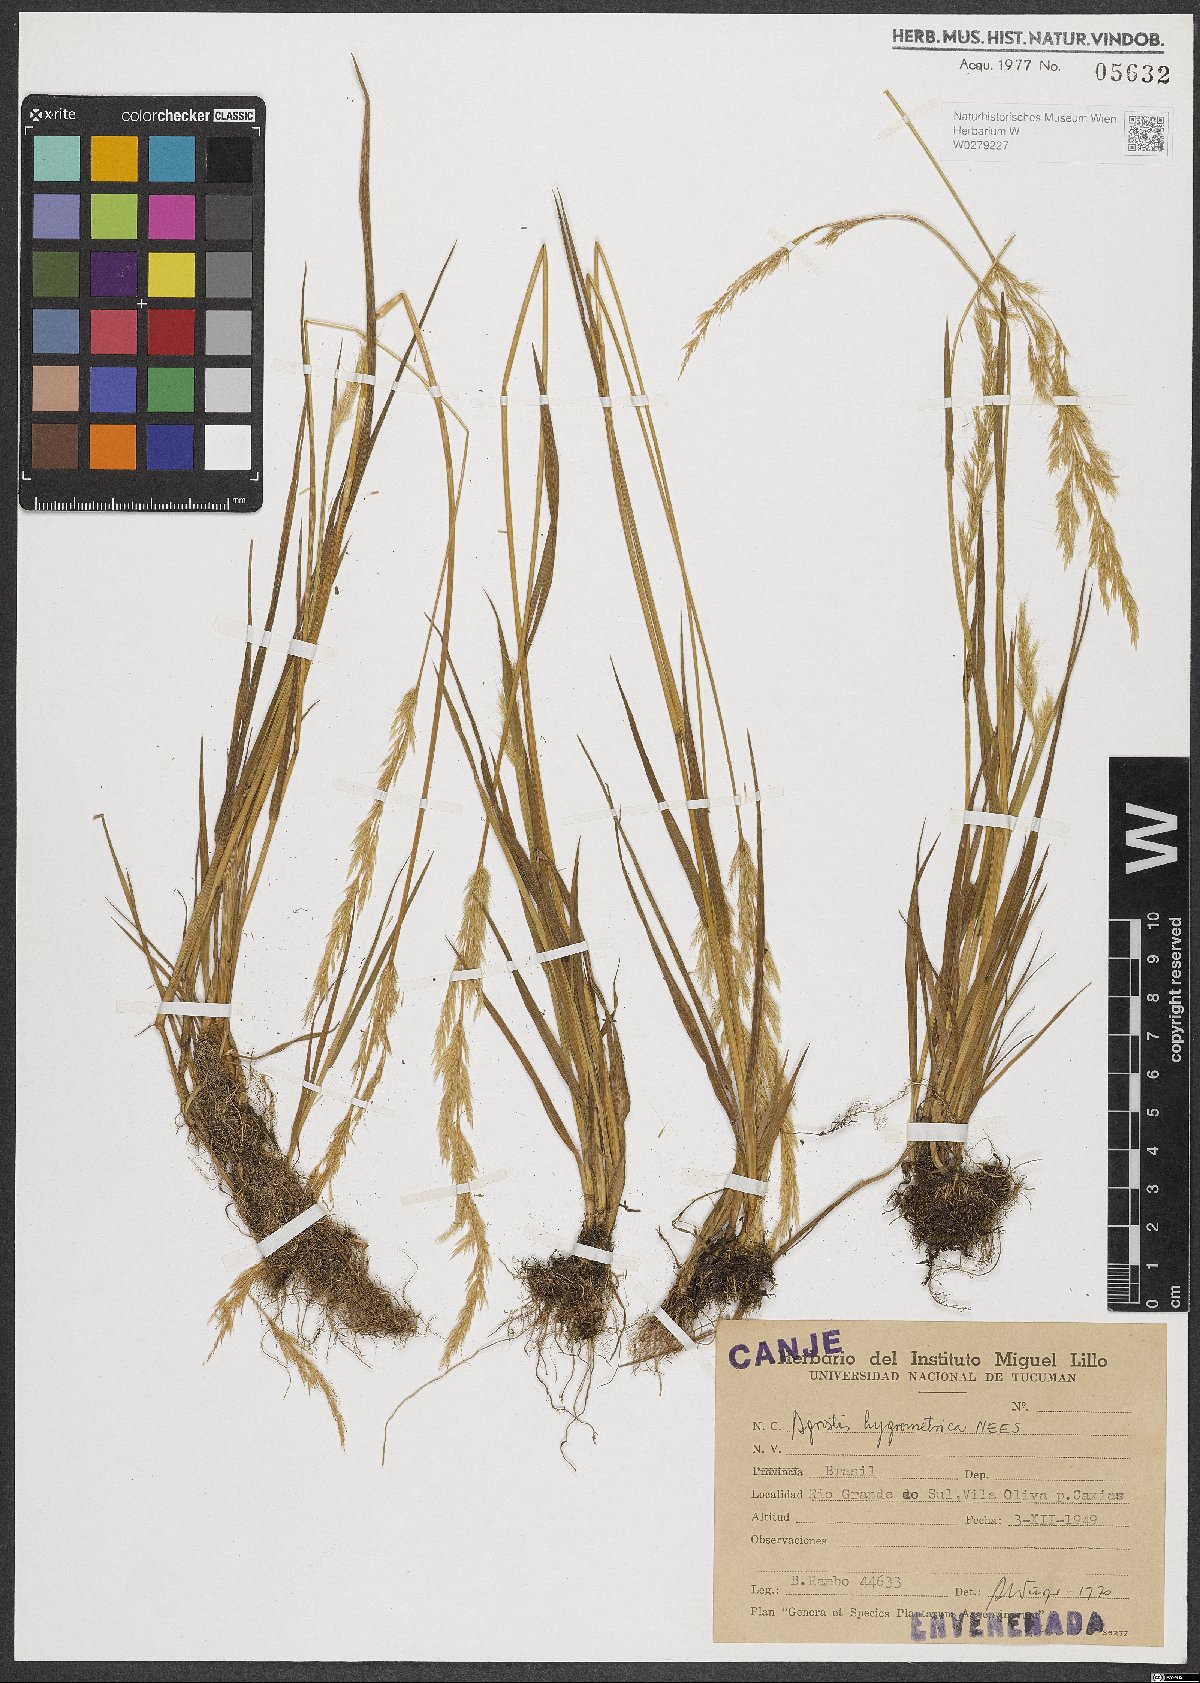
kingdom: Plantae
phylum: Tracheophyta
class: Liliopsida
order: Poales
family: Poaceae
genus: Agrostis
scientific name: Agrostis hygrometrica
